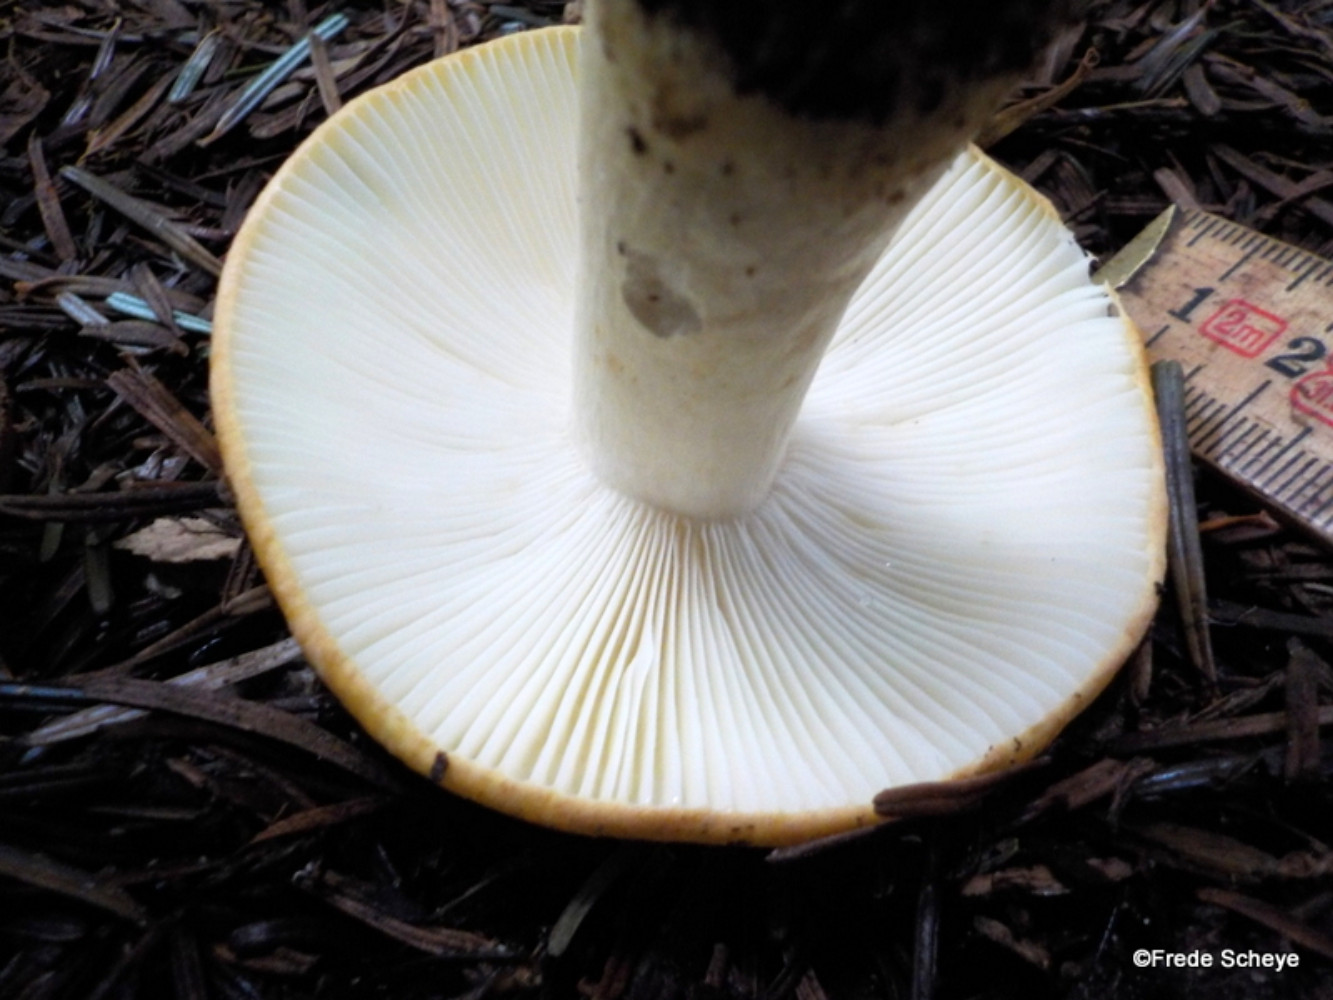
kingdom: Fungi
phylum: Basidiomycota
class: Agaricomycetes
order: Russulales
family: Russulaceae
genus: Russula
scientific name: Russula ochroleuca
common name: okkergul skørhat
